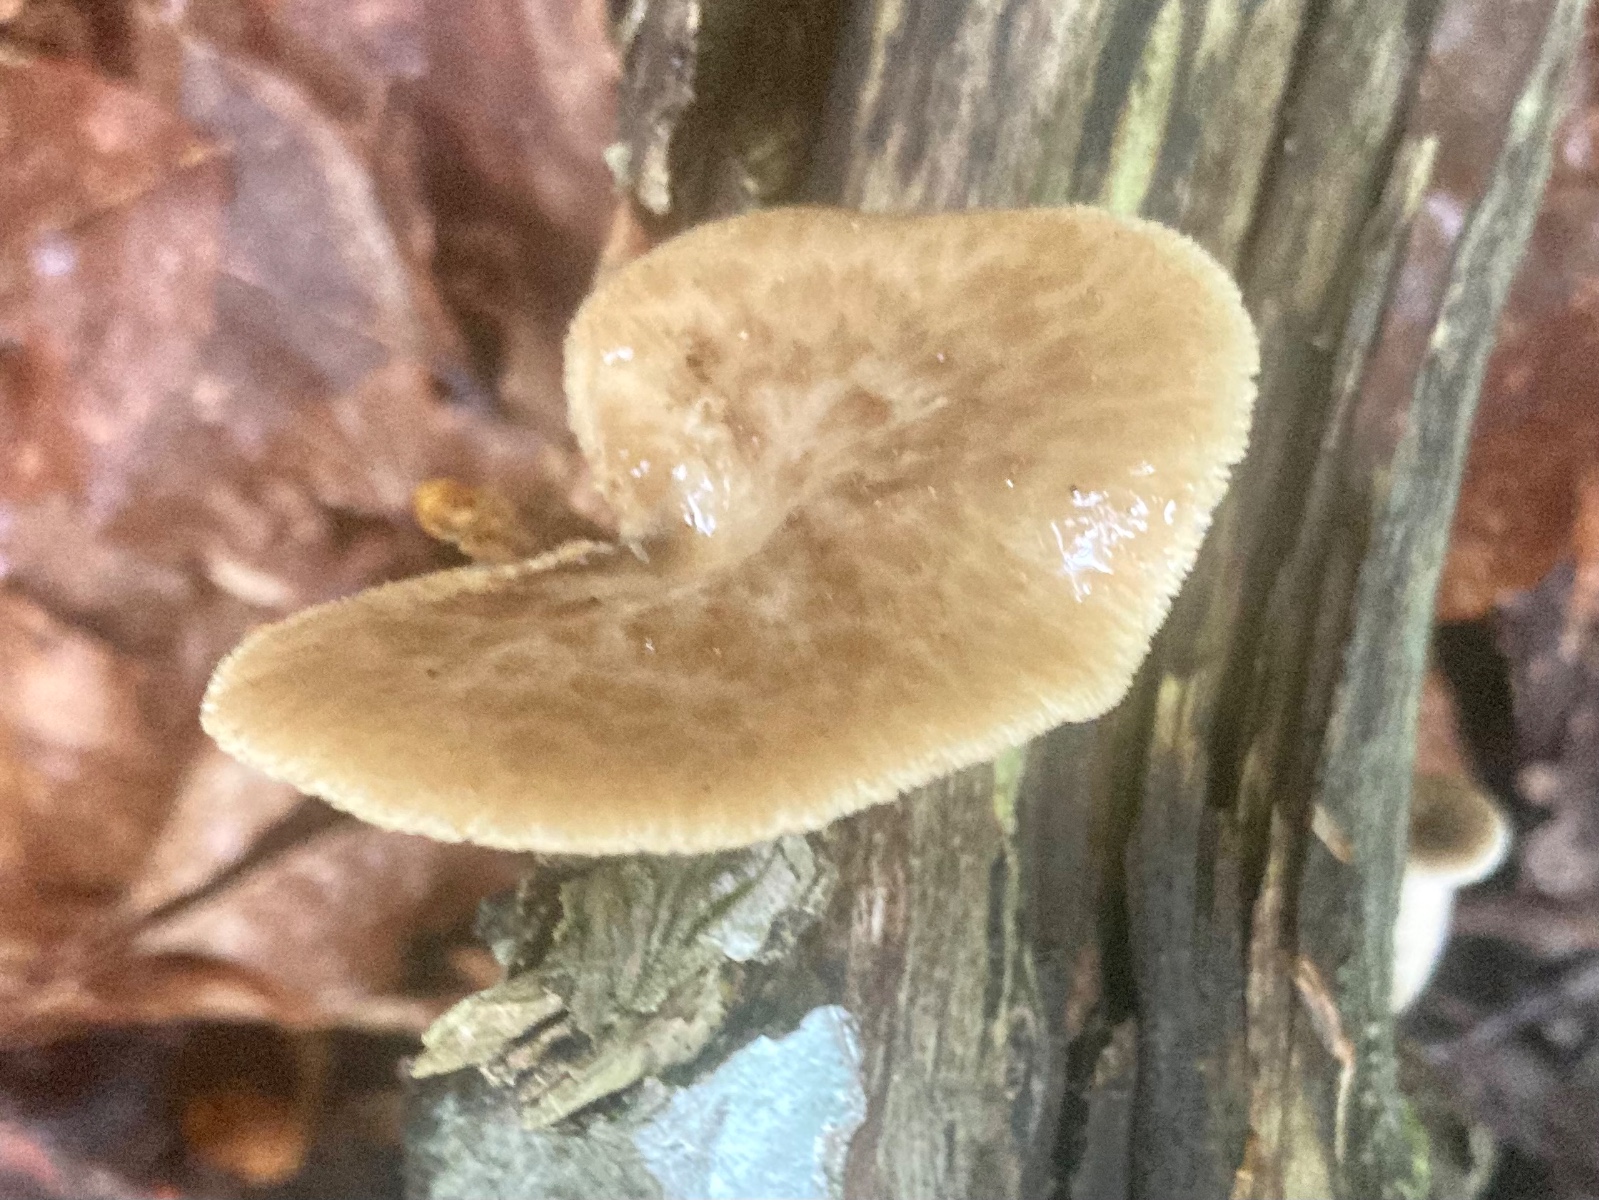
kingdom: Fungi
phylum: Basidiomycota
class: Agaricomycetes
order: Polyporales
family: Polyporaceae
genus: Polyporus
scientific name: Polyporus tuberaster
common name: knoldet stilkporesvamp
